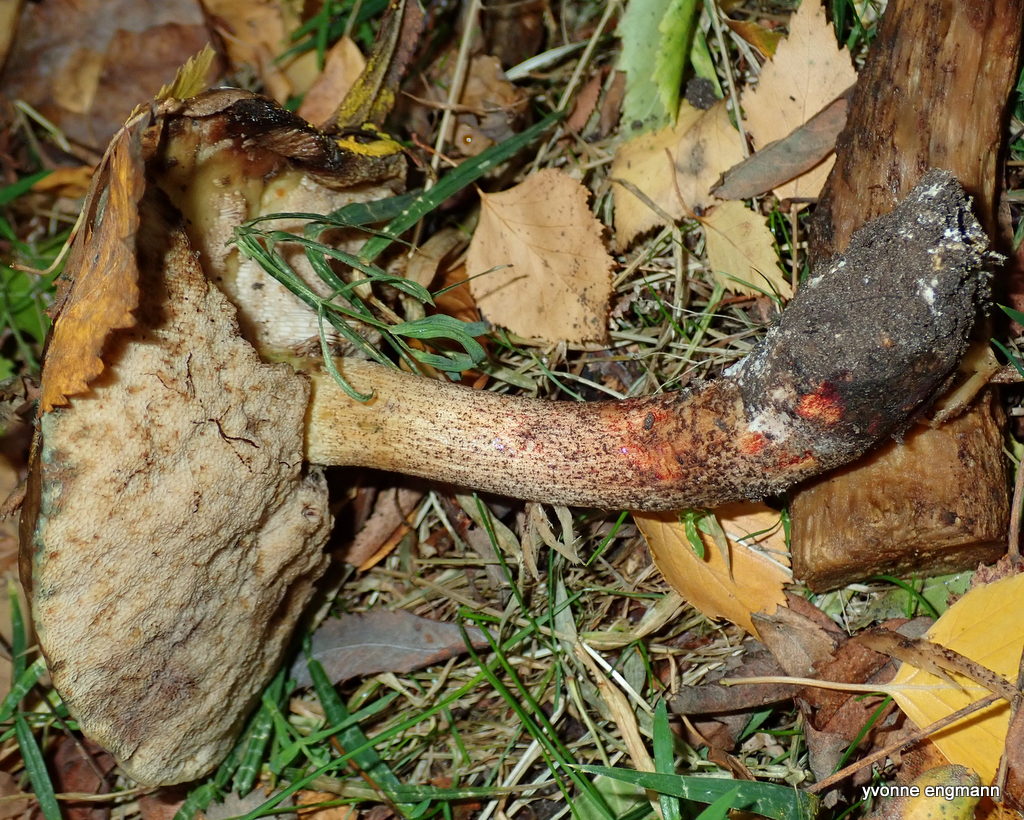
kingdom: Fungi
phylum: Basidiomycota
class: Agaricomycetes
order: Boletales
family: Boletaceae
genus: Leccinum
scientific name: Leccinum
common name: skælrørhat
